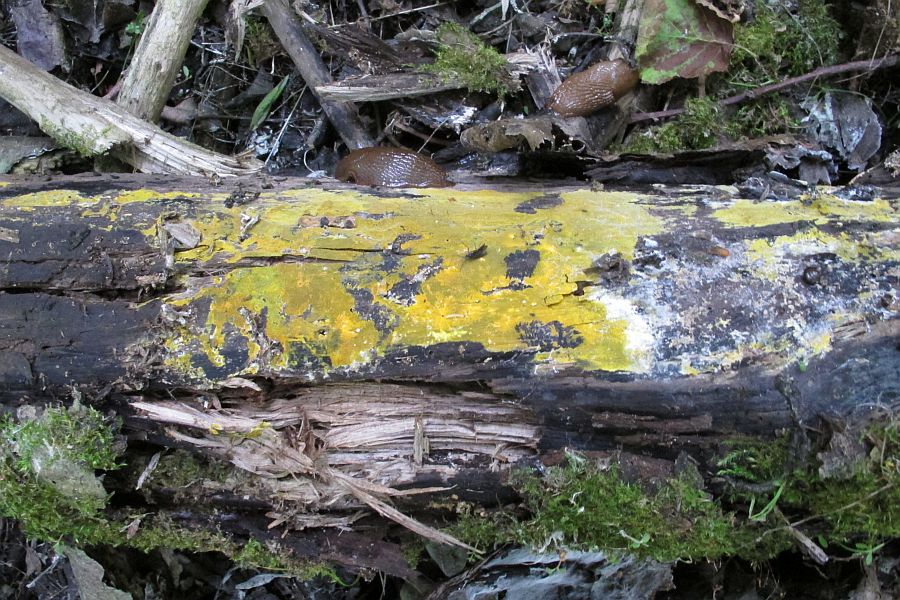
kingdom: Fungi
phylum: Basidiomycota
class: Agaricomycetes
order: Polyporales
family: Meruliaceae
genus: Phlebiodontia
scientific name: Phlebiodontia subochracea
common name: svovl-åresvamp
